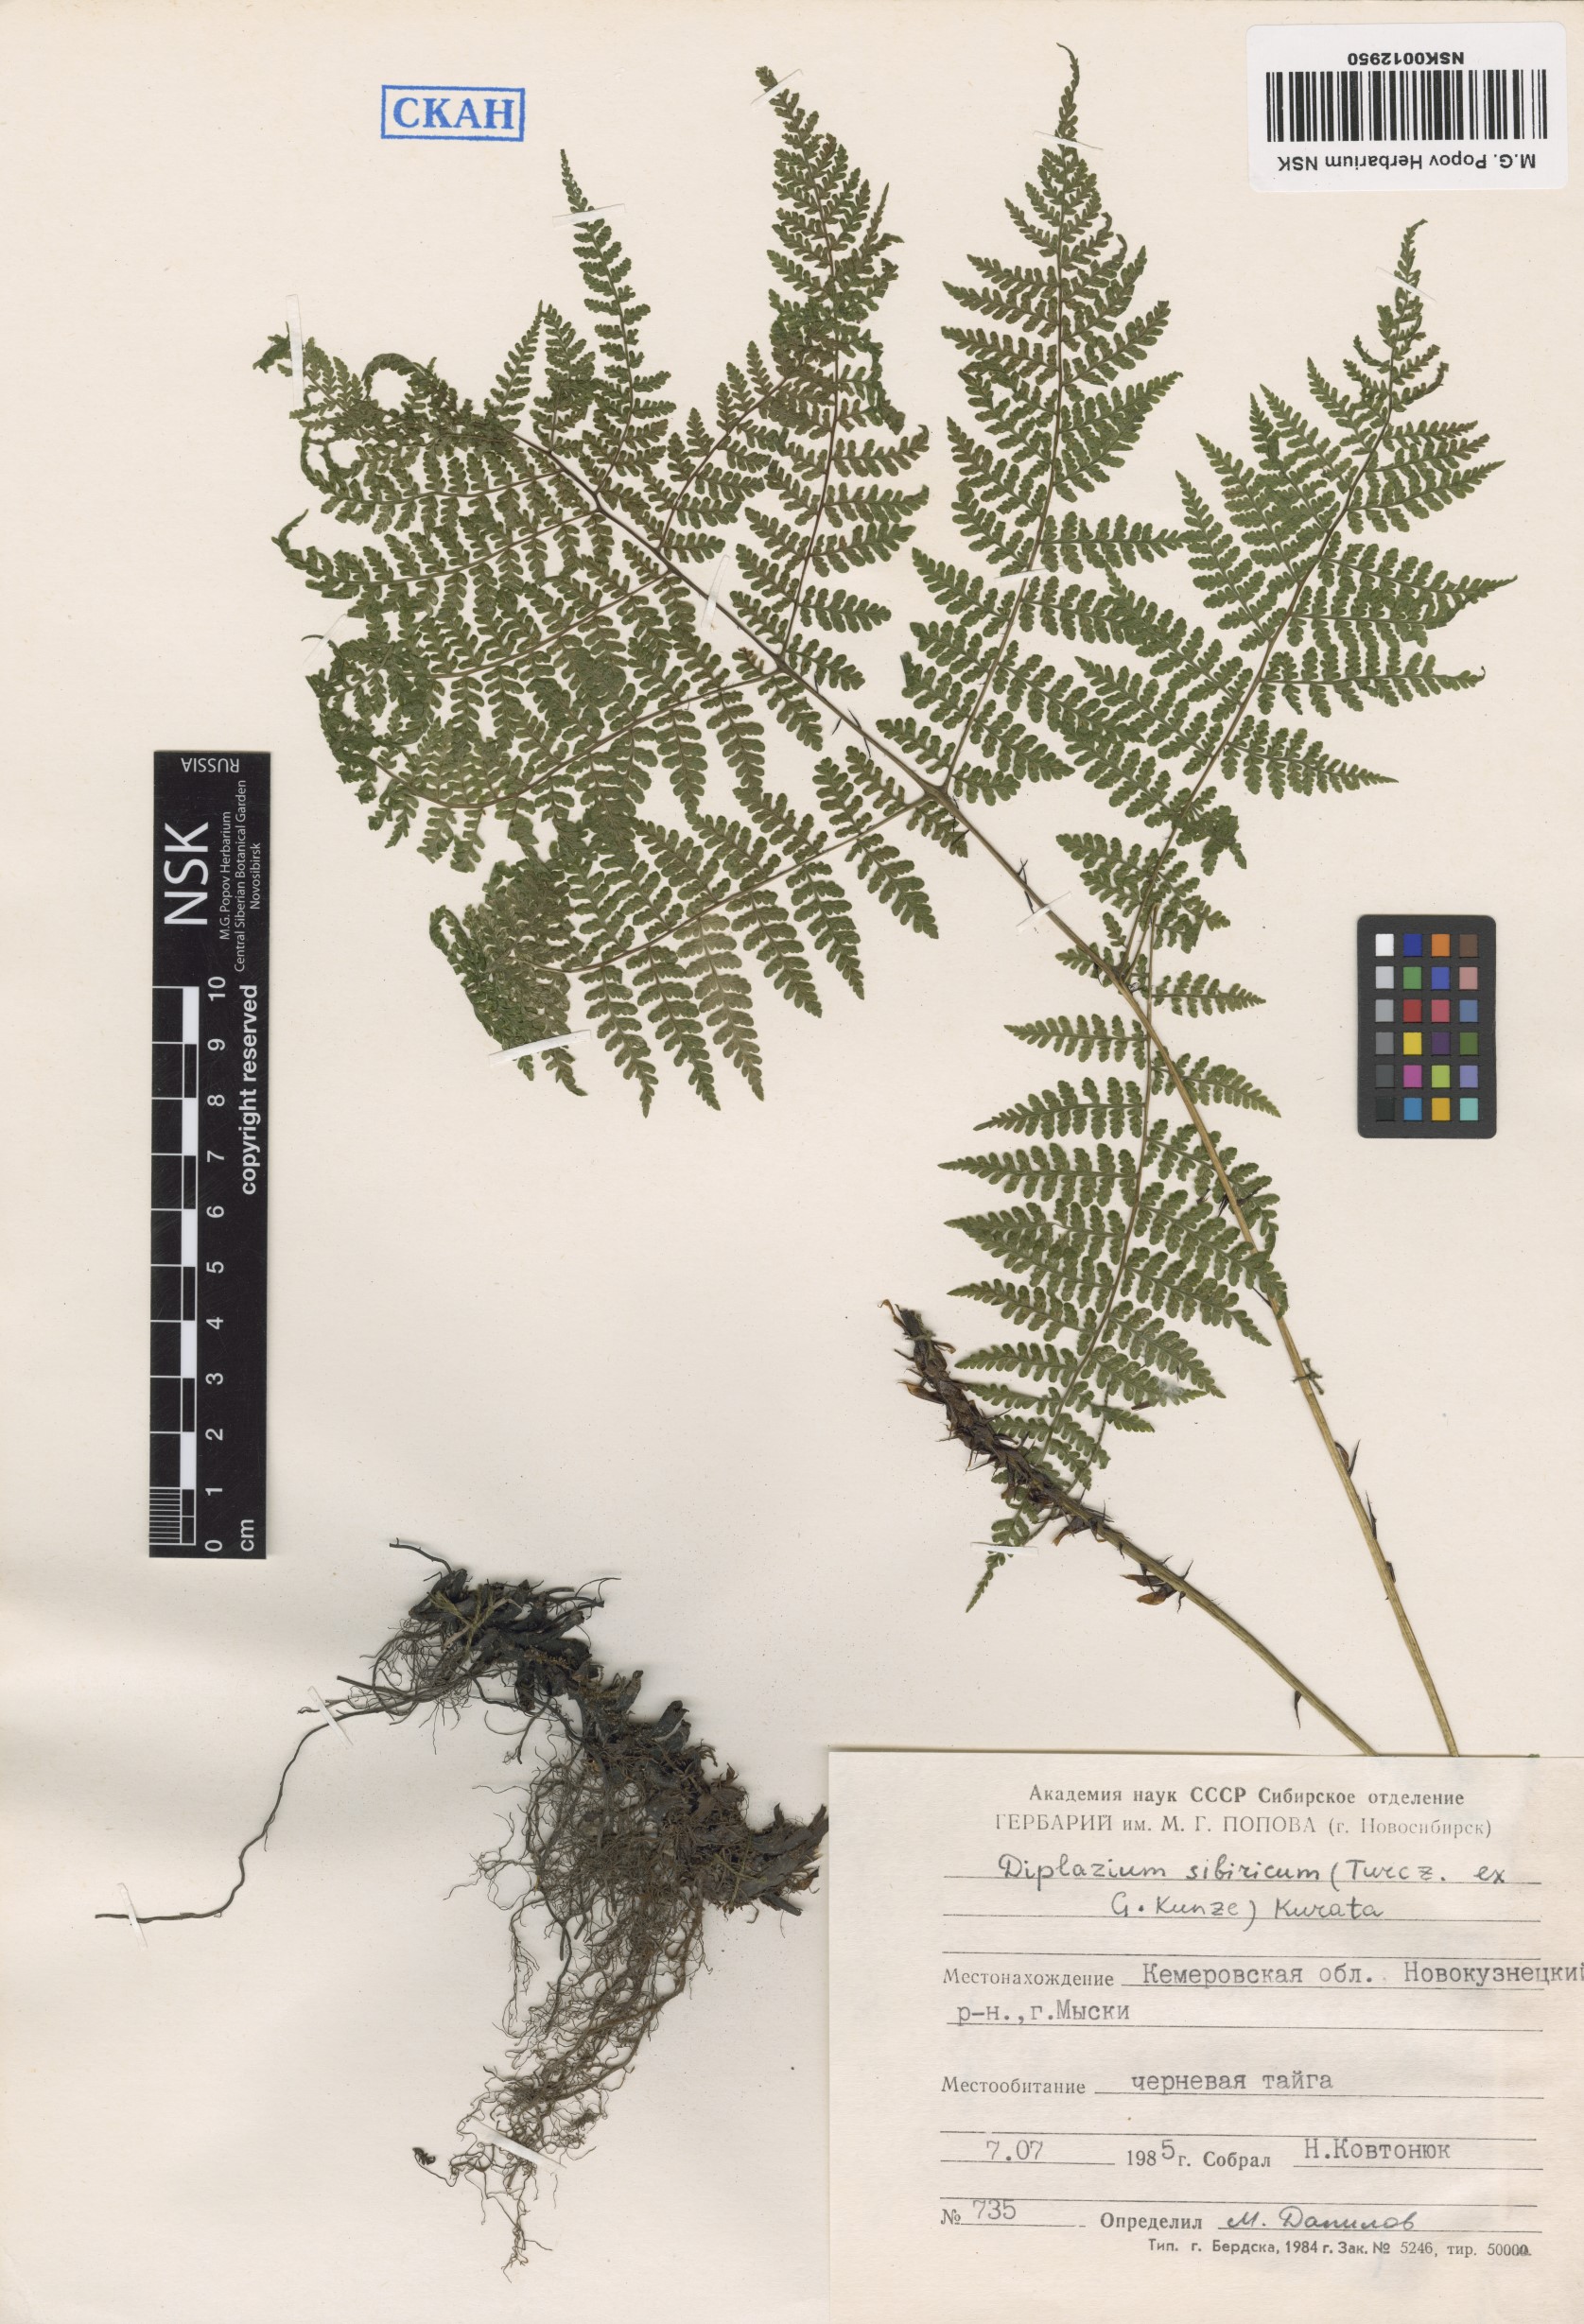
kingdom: Plantae
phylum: Tracheophyta
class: Polypodiopsida
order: Polypodiales
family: Athyriaceae
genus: Diplazium
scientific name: Diplazium sibiricum
